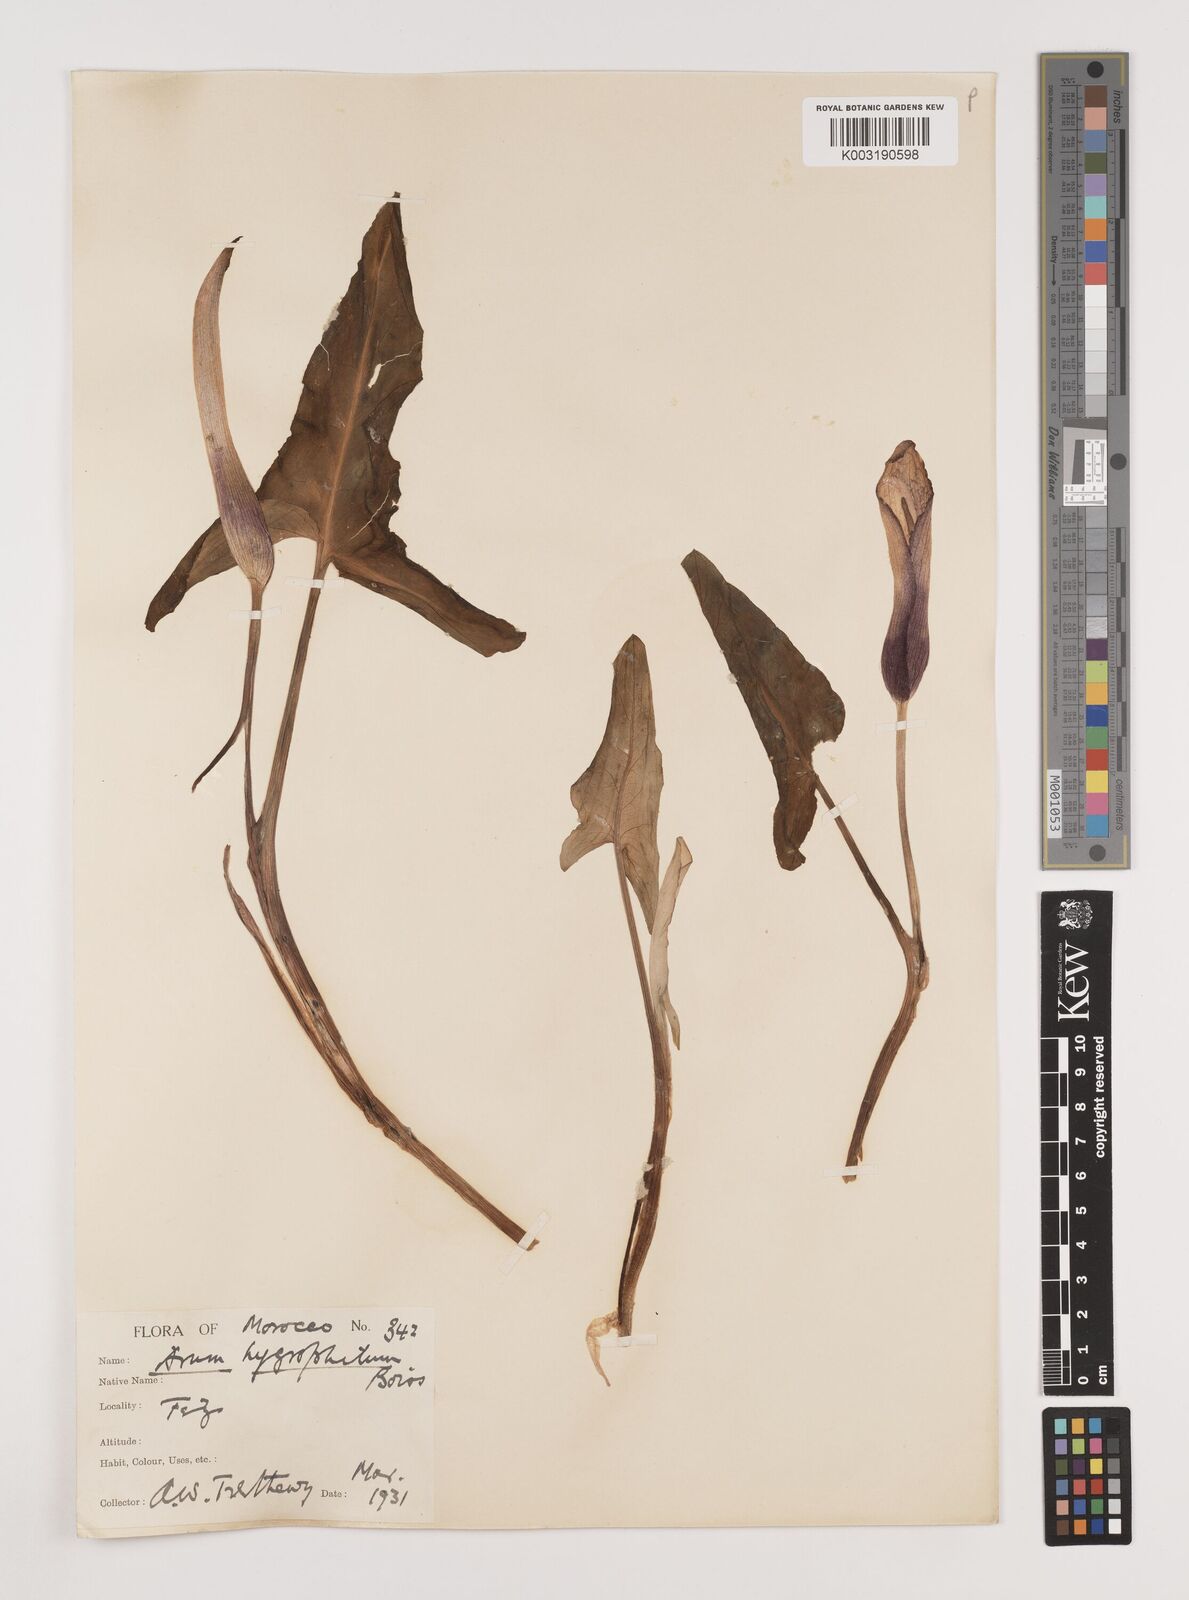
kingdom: Plantae
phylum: Tracheophyta
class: Liliopsida
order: Alismatales
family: Araceae
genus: Arum
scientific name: Arum hygrophilum
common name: Water arum
